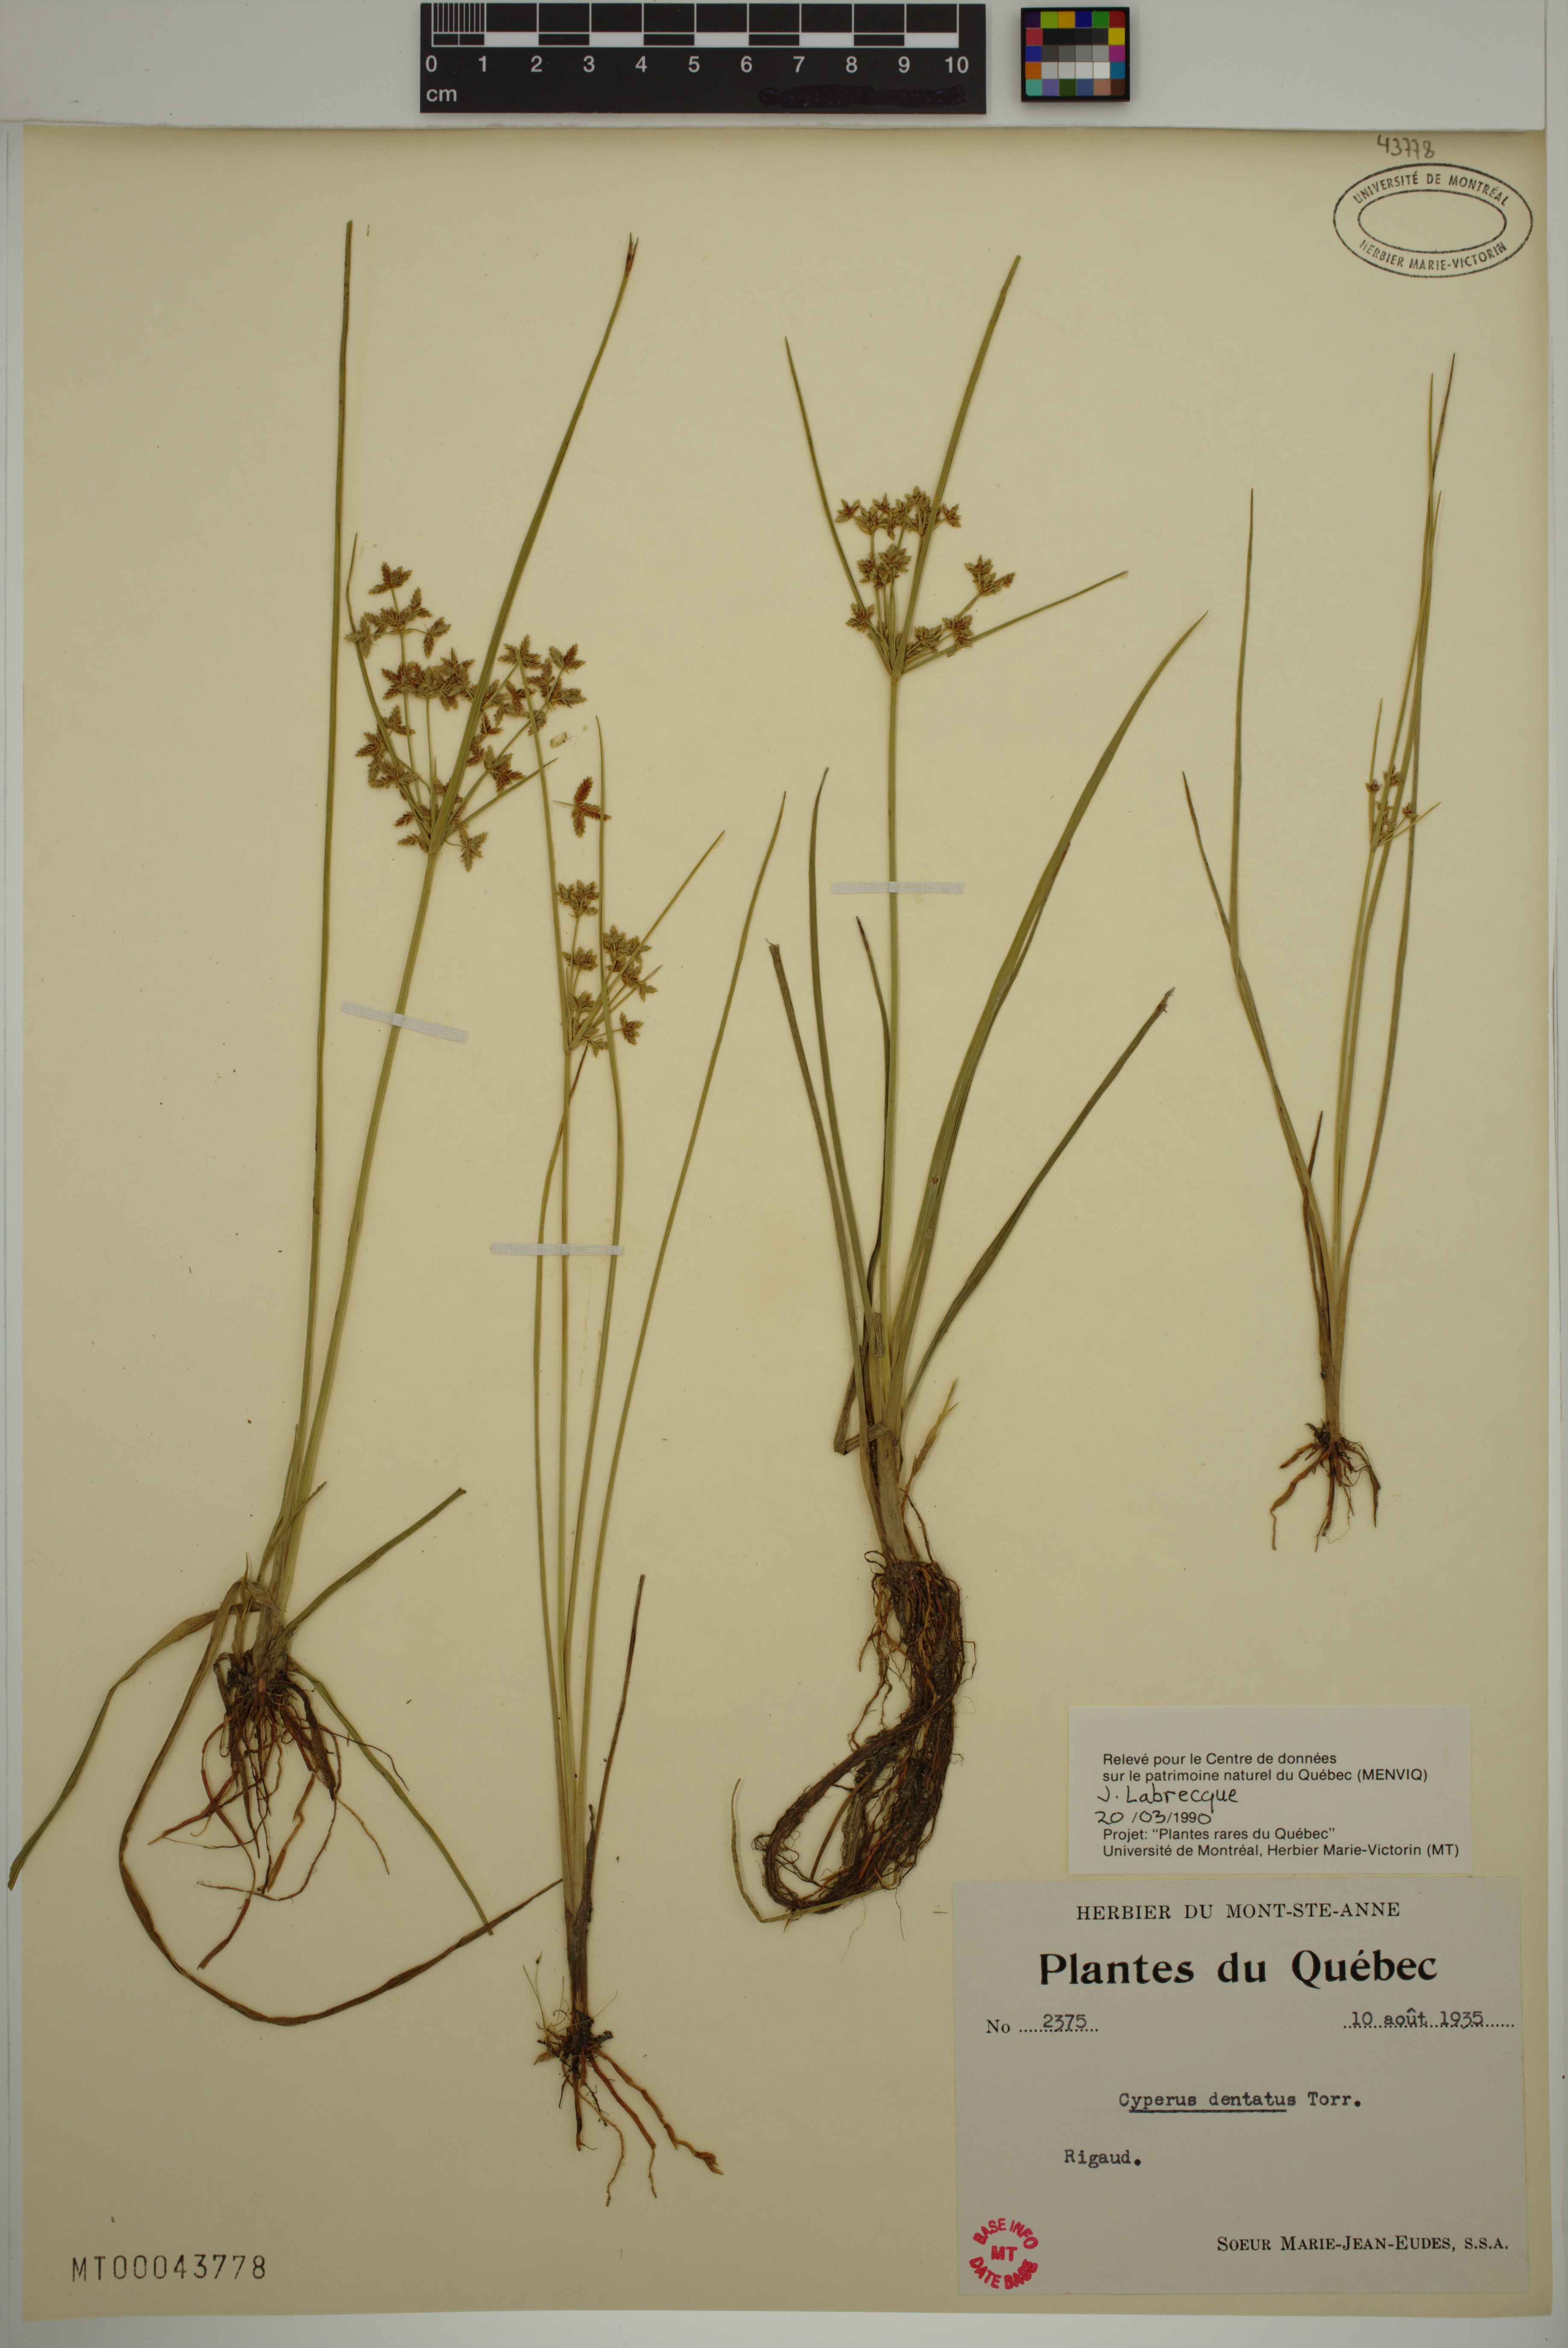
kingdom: Plantae
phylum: Tracheophyta
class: Liliopsida
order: Poales
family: Cyperaceae
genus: Cyperus
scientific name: Cyperus dentatus
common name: Dentate umbrella sedge
